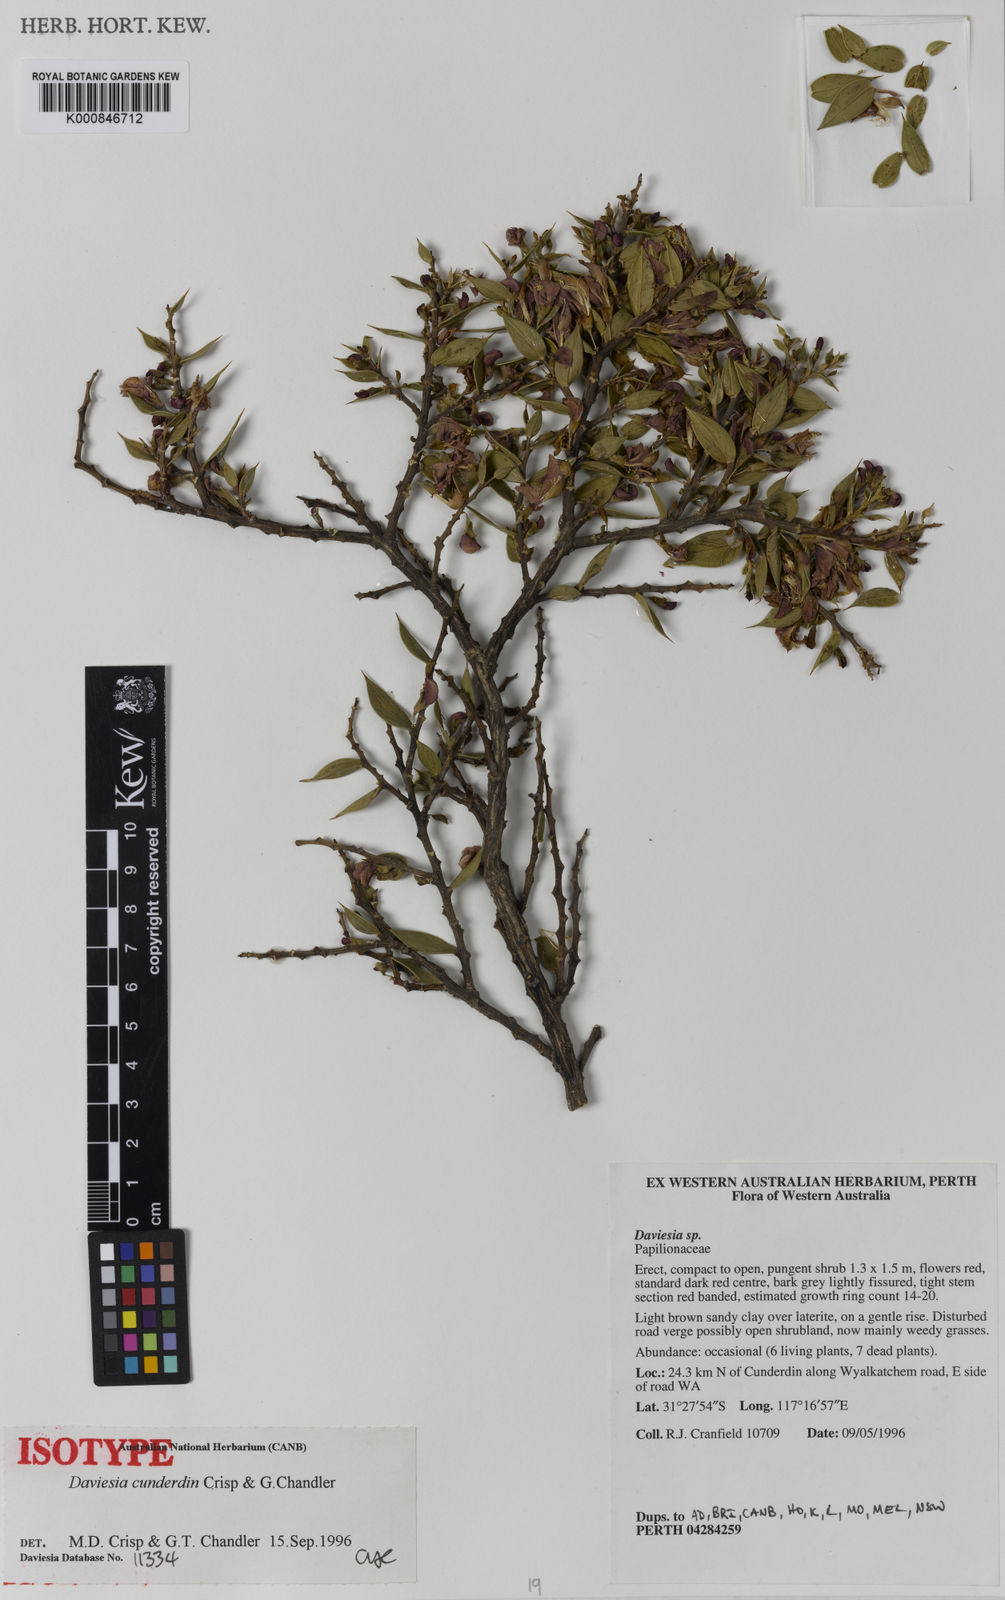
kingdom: Plantae
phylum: Tracheophyta
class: Magnoliopsida
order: Fabales
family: Fabaceae
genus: Daviesia
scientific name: Daviesia cunderdin
